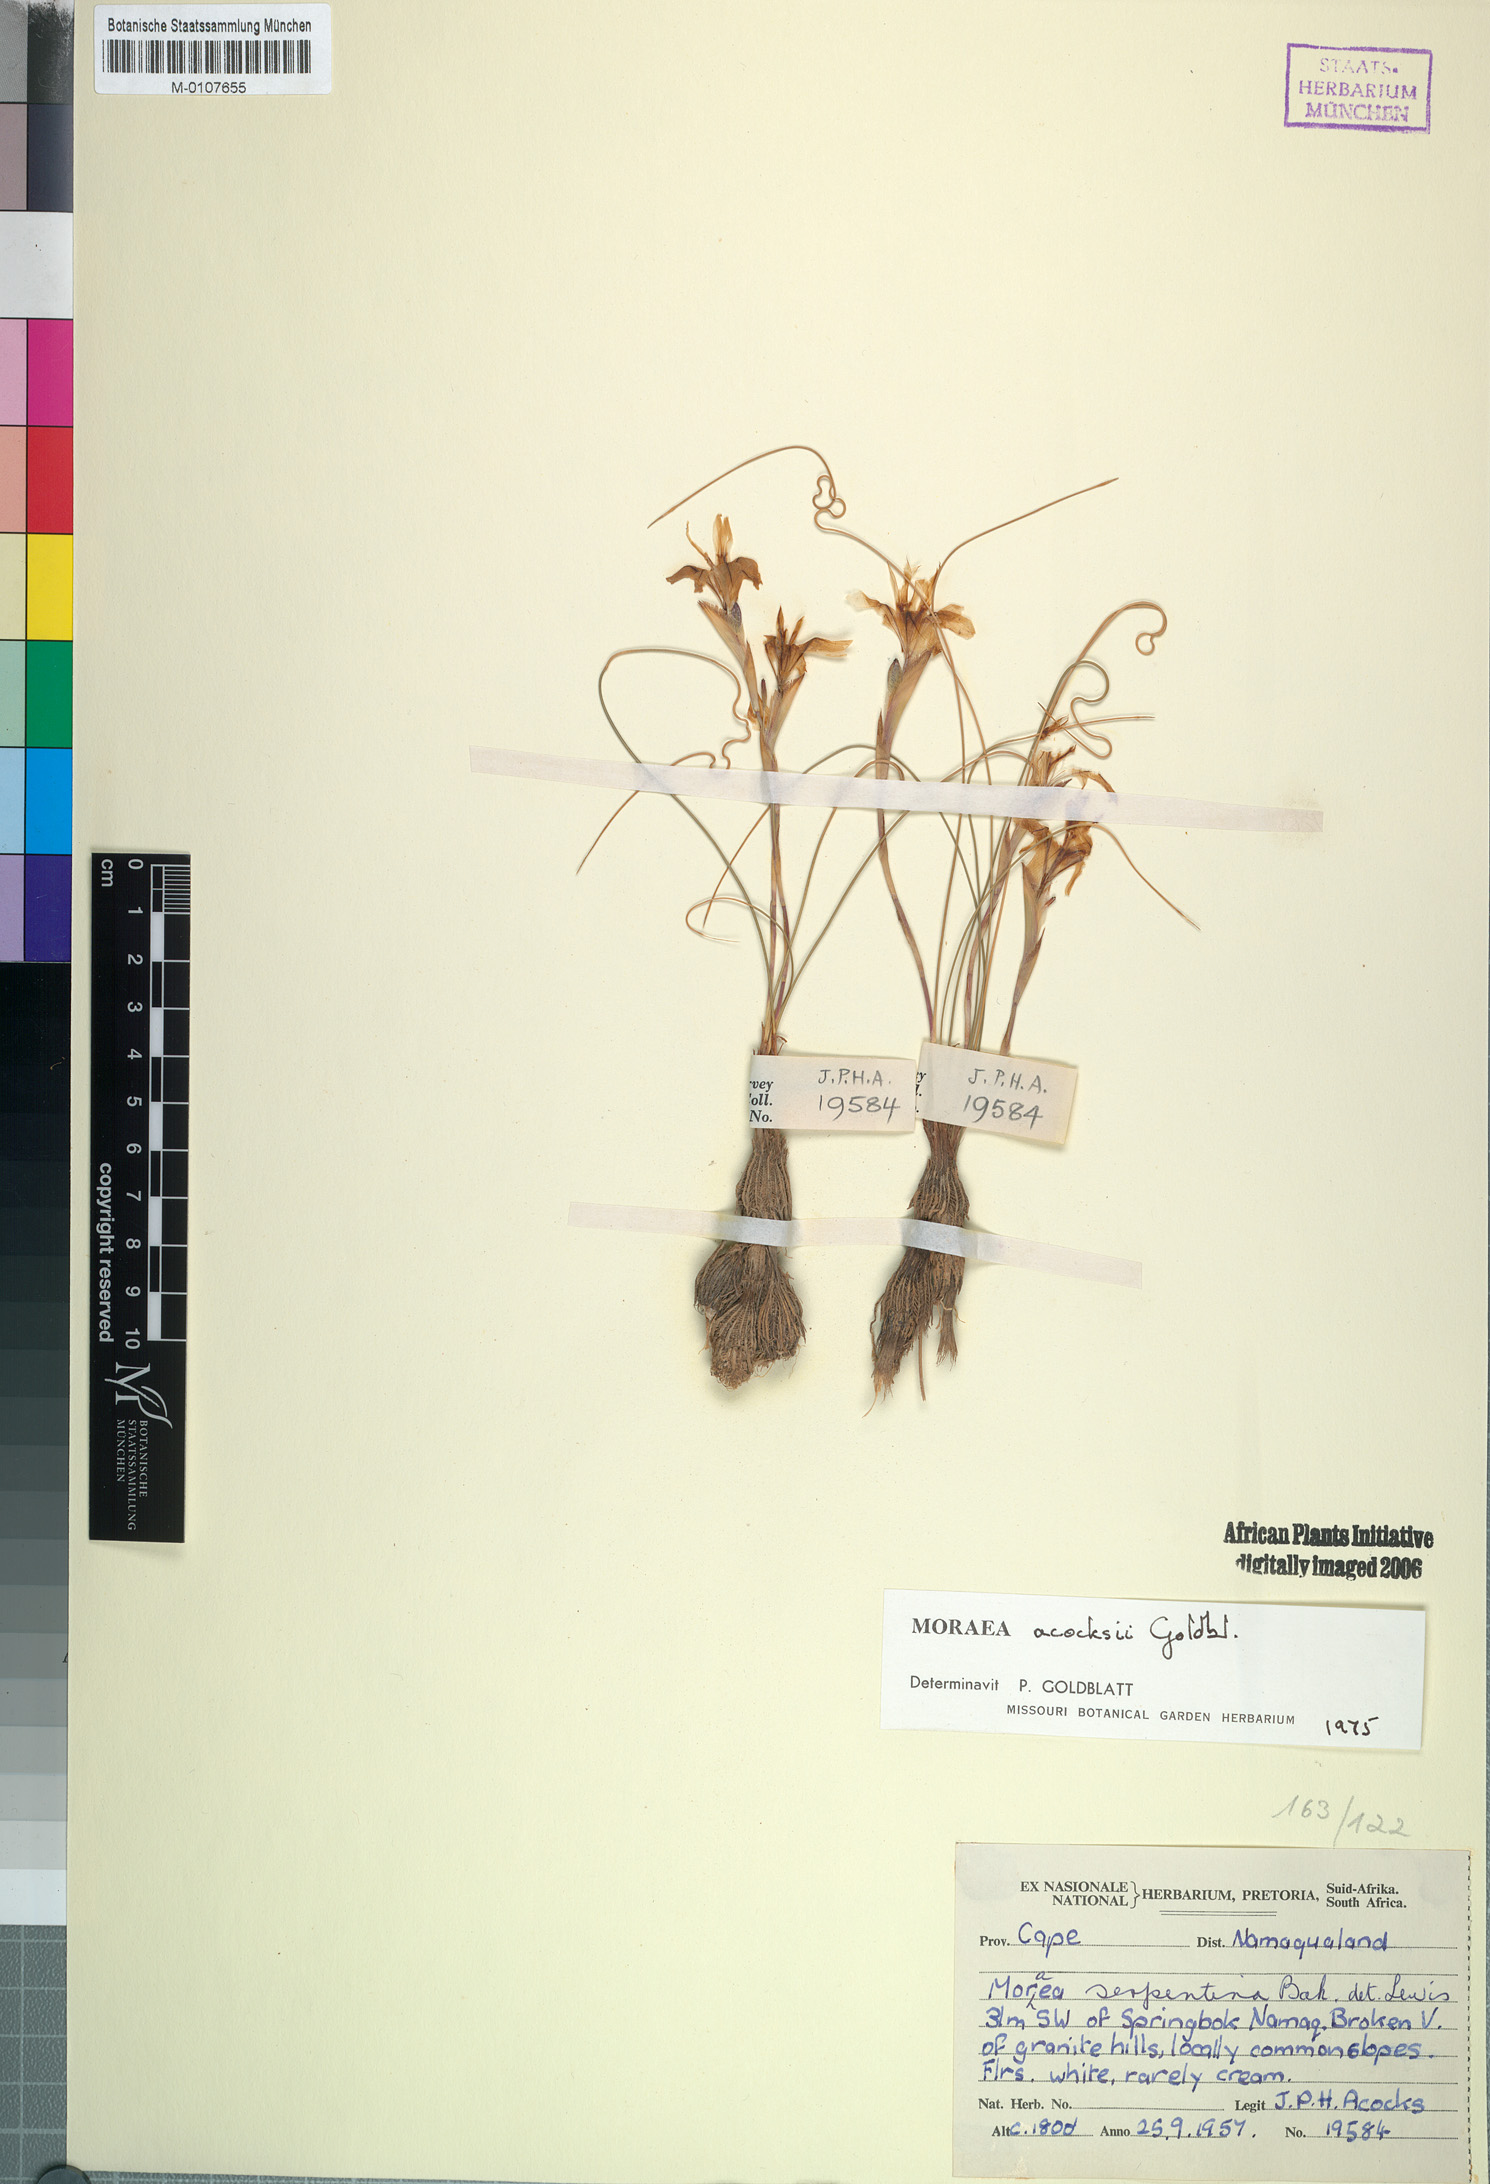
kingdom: Plantae
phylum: Tracheophyta
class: Liliopsida
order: Asparagales
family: Iridaceae
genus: Moraea
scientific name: Moraea saxicola
